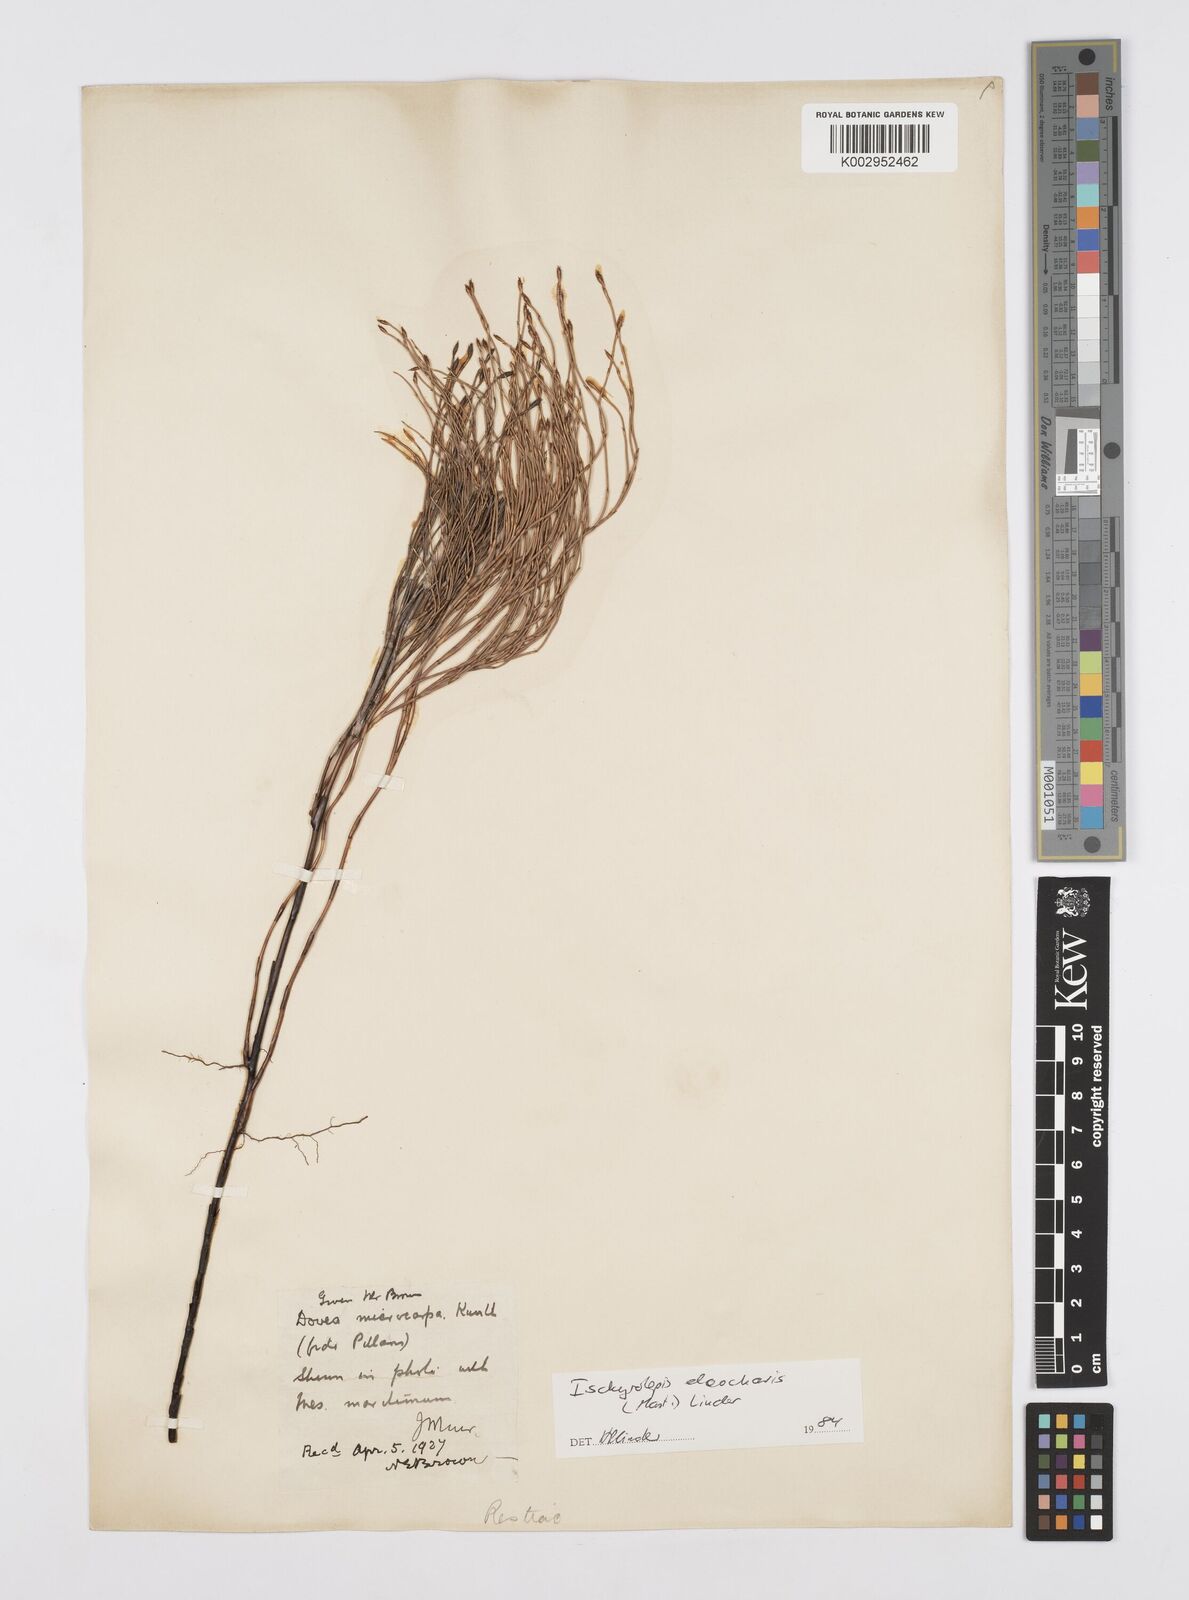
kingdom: Plantae
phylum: Tracheophyta
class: Liliopsida
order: Poales
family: Restionaceae
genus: Restio
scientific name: Restio eleocharis
